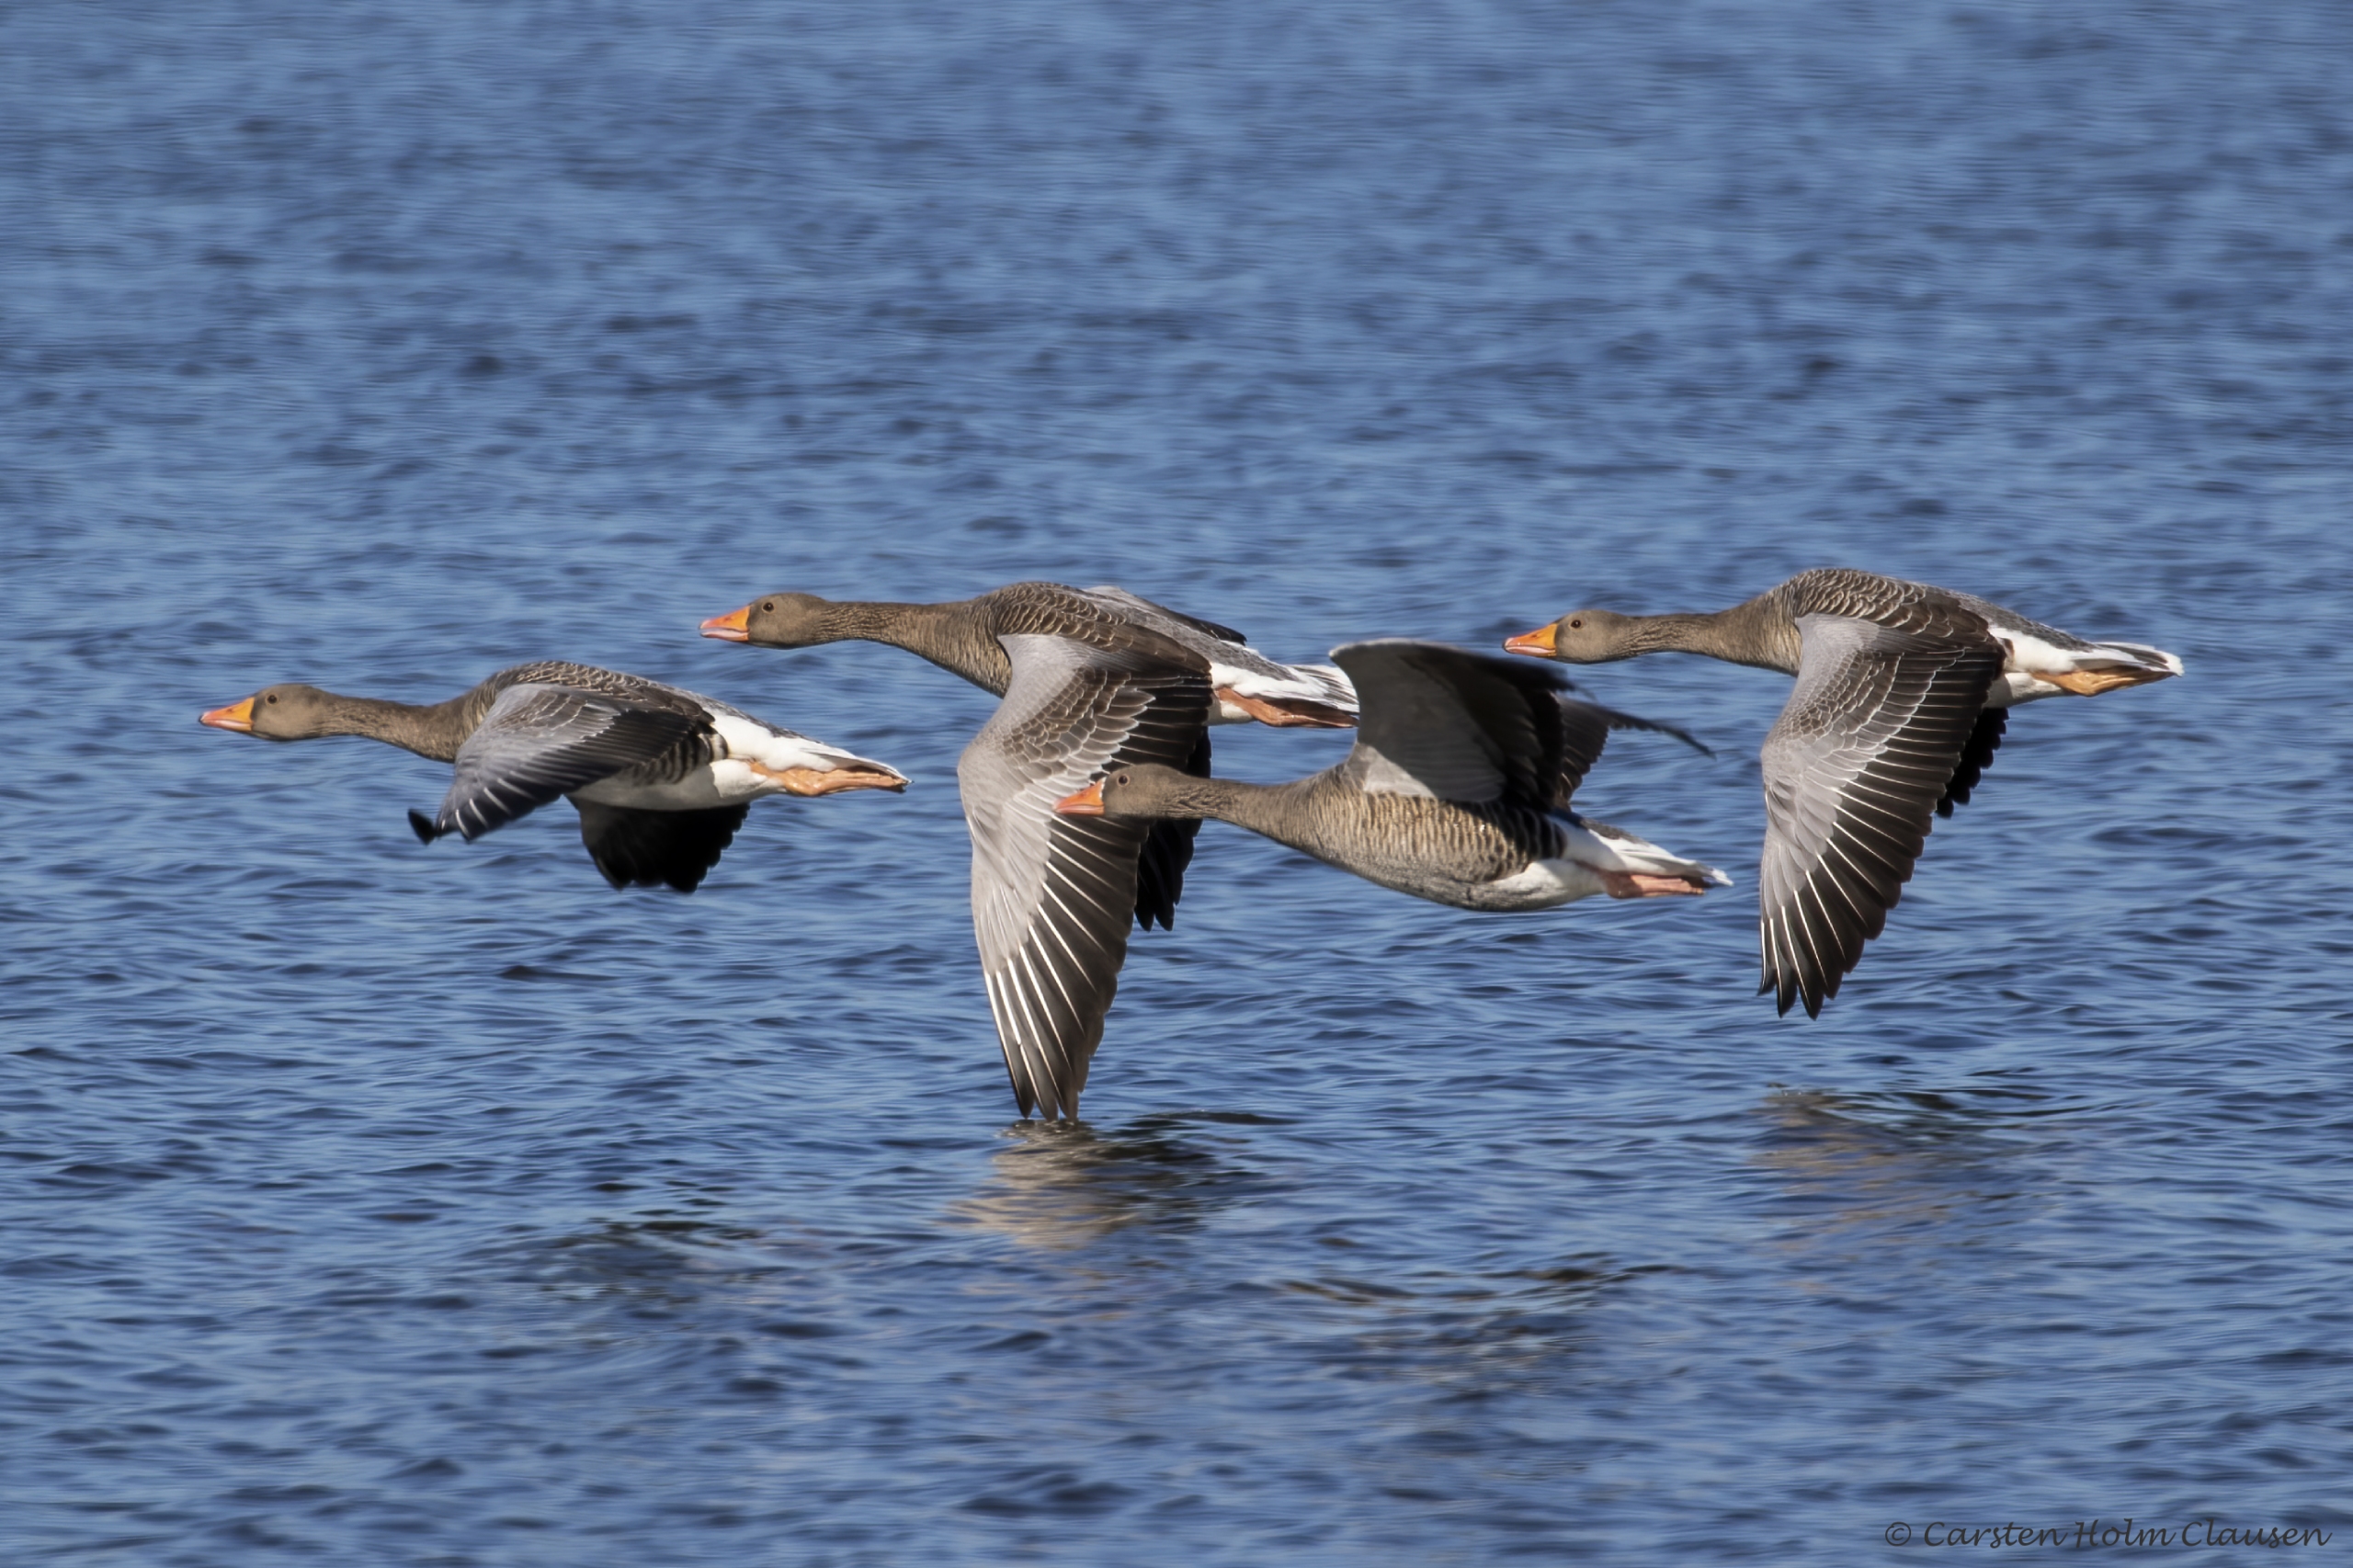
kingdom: Animalia
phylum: Chordata
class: Aves
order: Anseriformes
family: Anatidae
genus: Anser
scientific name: Anser anser
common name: Grågås
